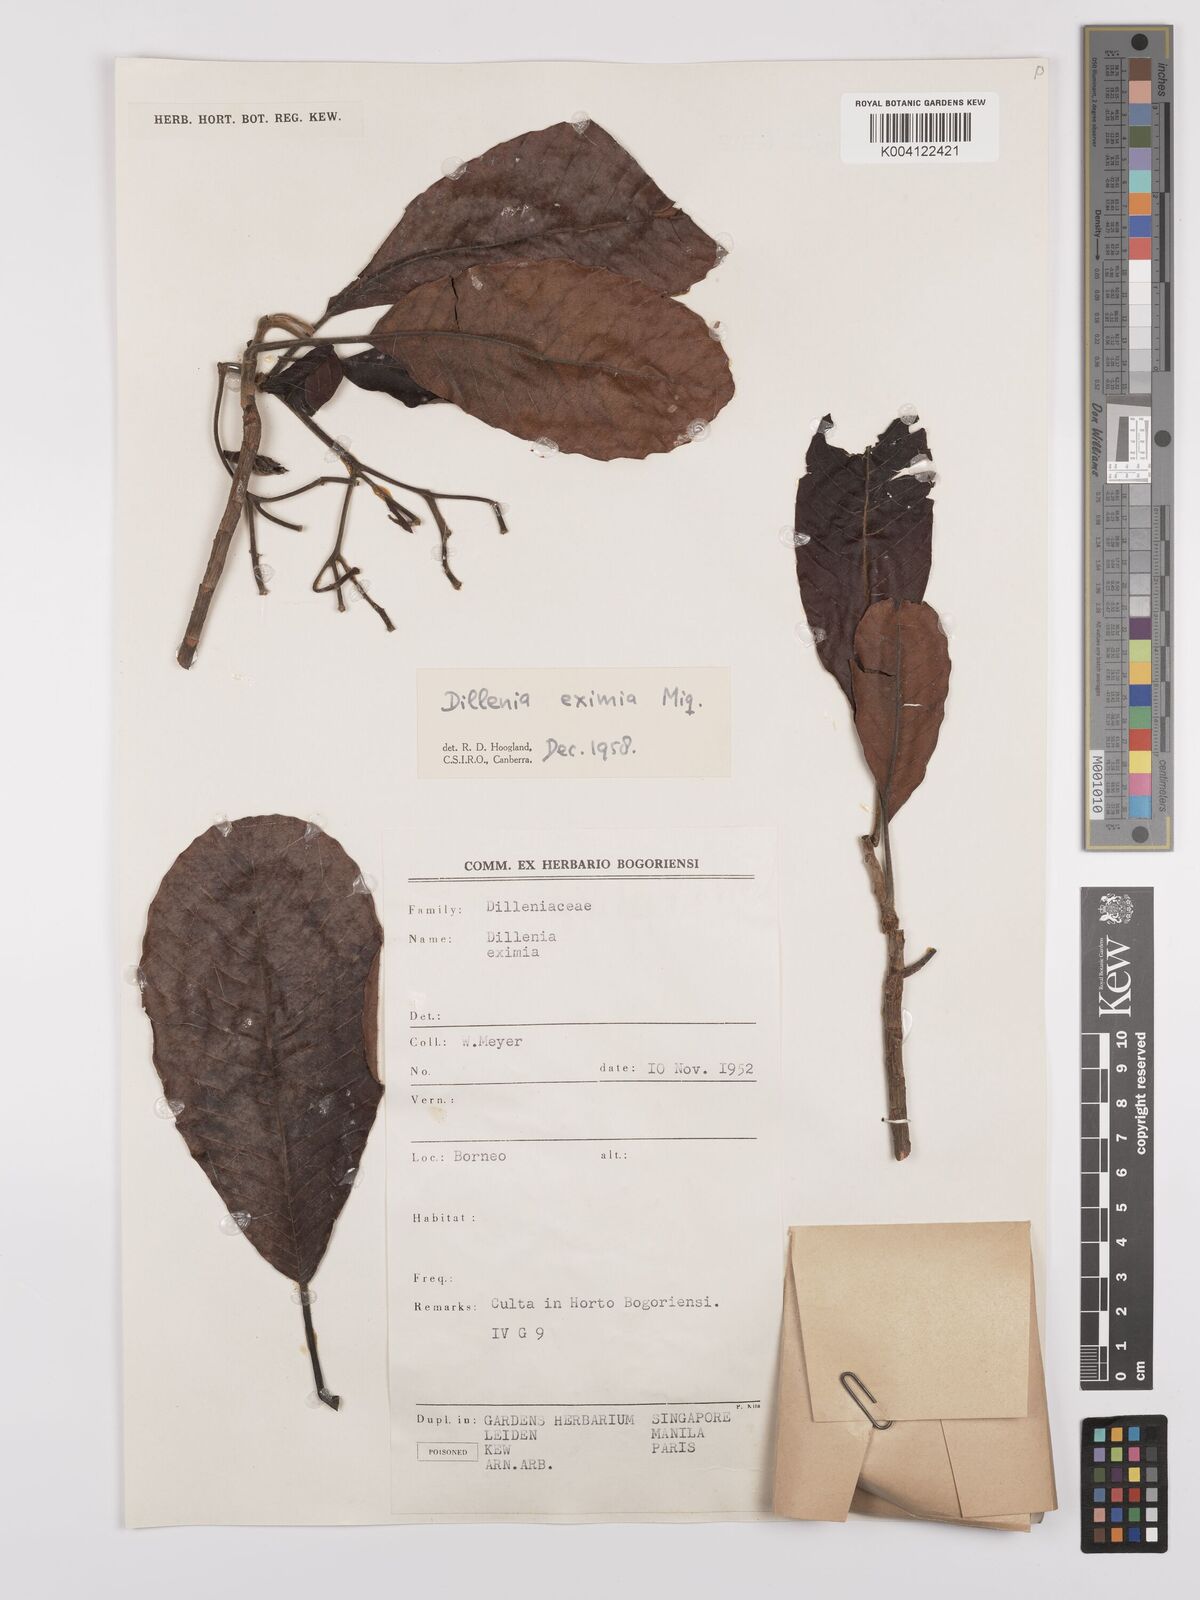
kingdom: Plantae
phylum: Tracheophyta
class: Magnoliopsida
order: Dilleniales
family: Dilleniaceae
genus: Dillenia
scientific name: Dillenia grandifolia
